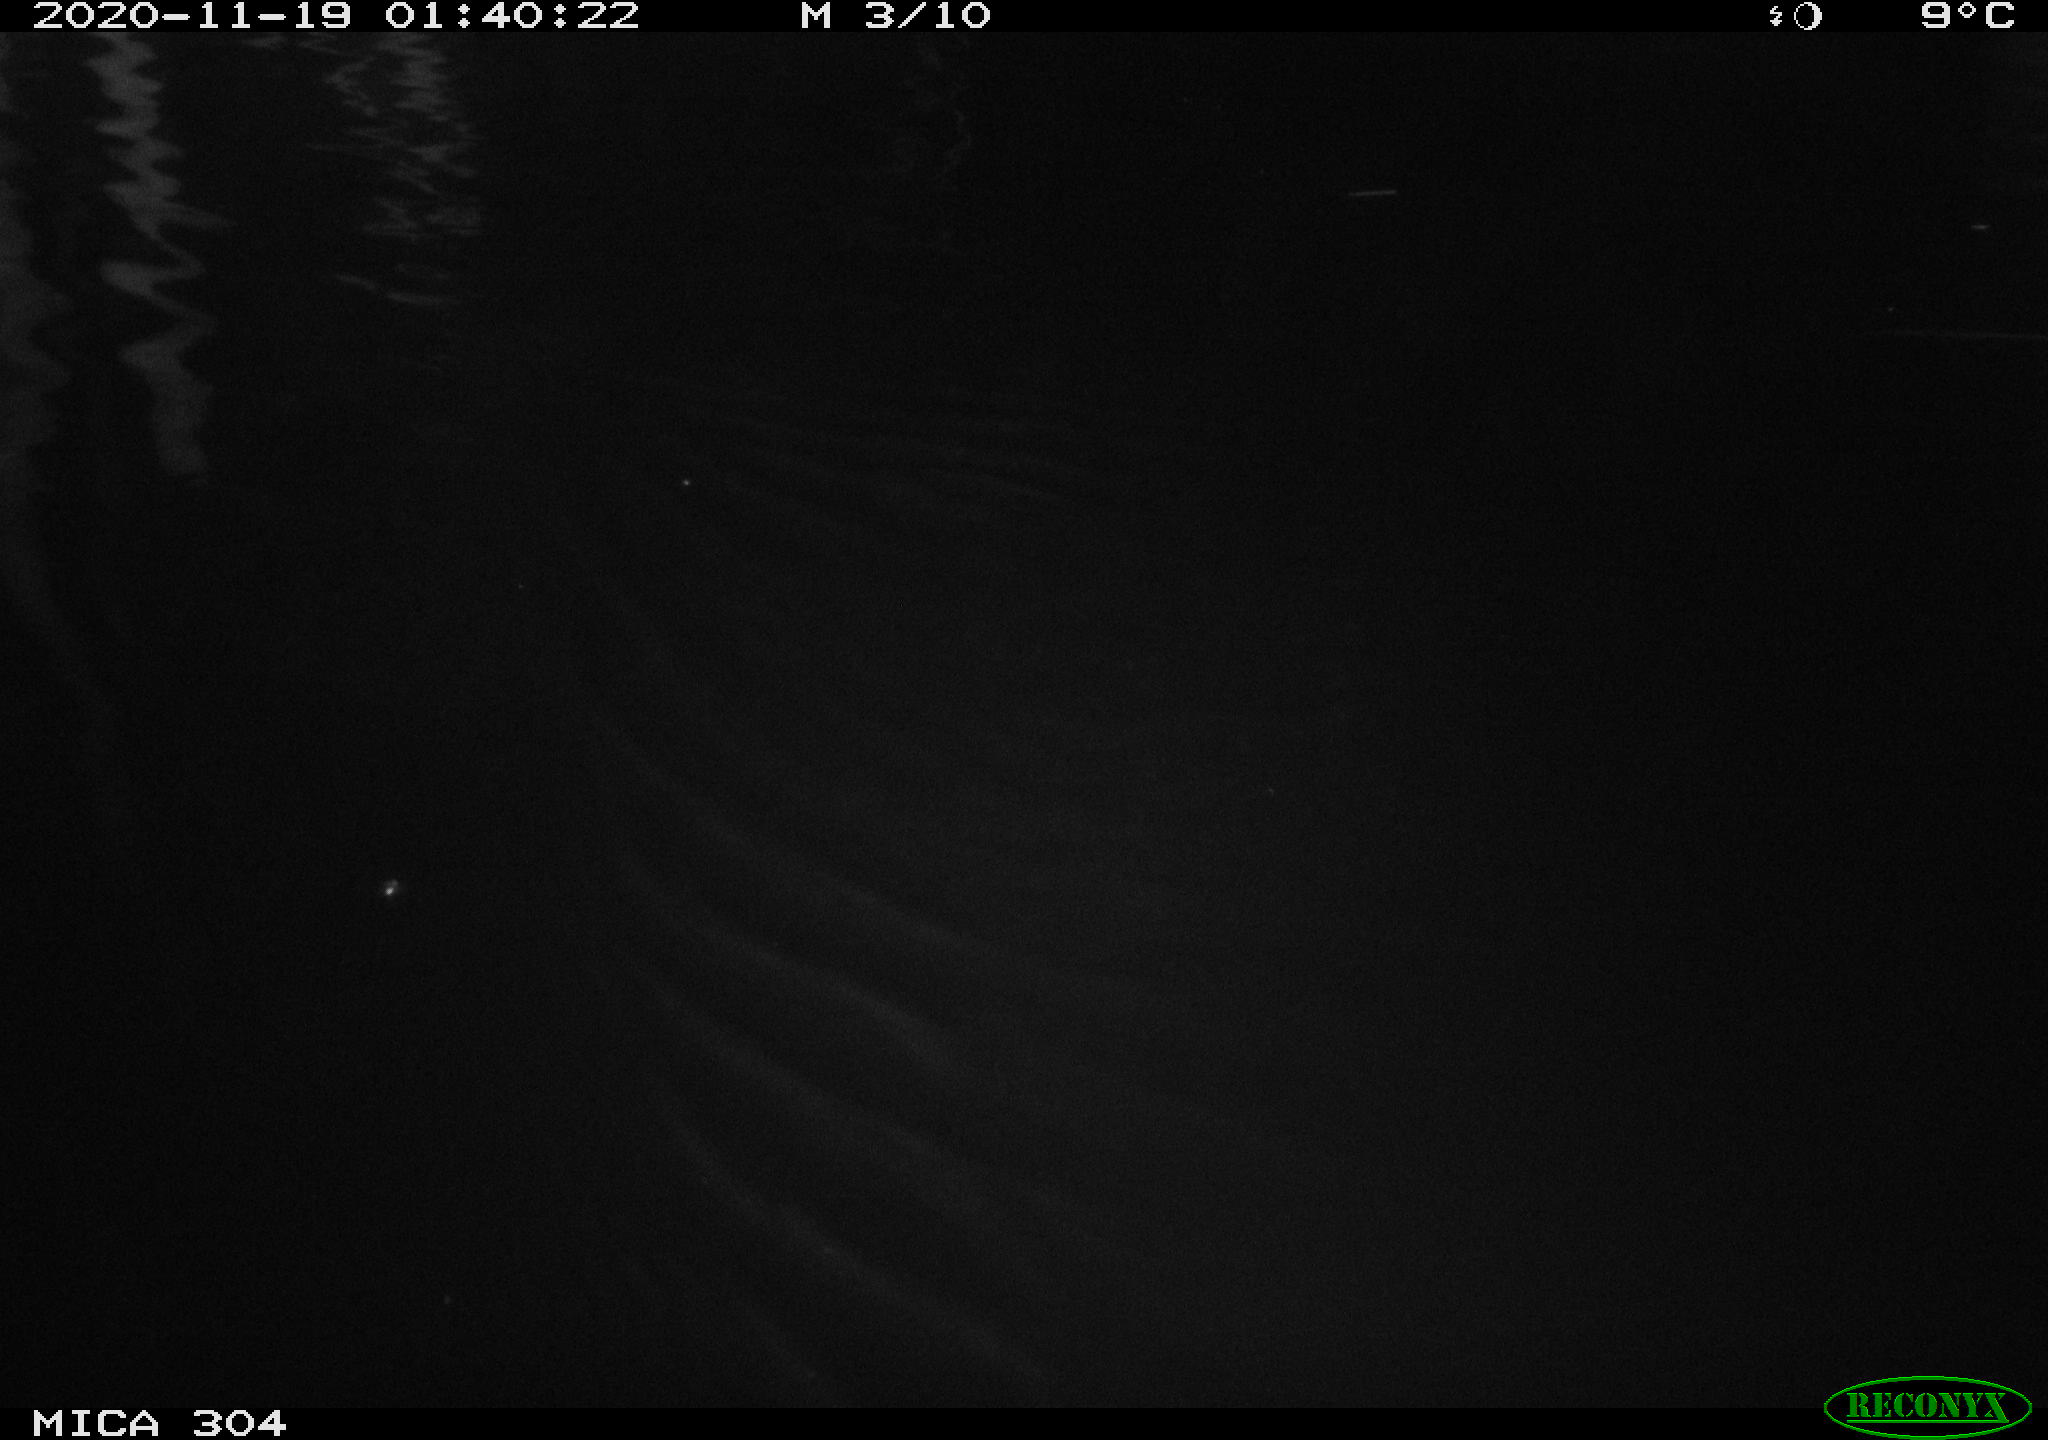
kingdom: Animalia
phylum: Chordata
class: Aves
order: Anseriformes
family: Anatidae
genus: Anas
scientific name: Anas platyrhynchos
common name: Mallard
